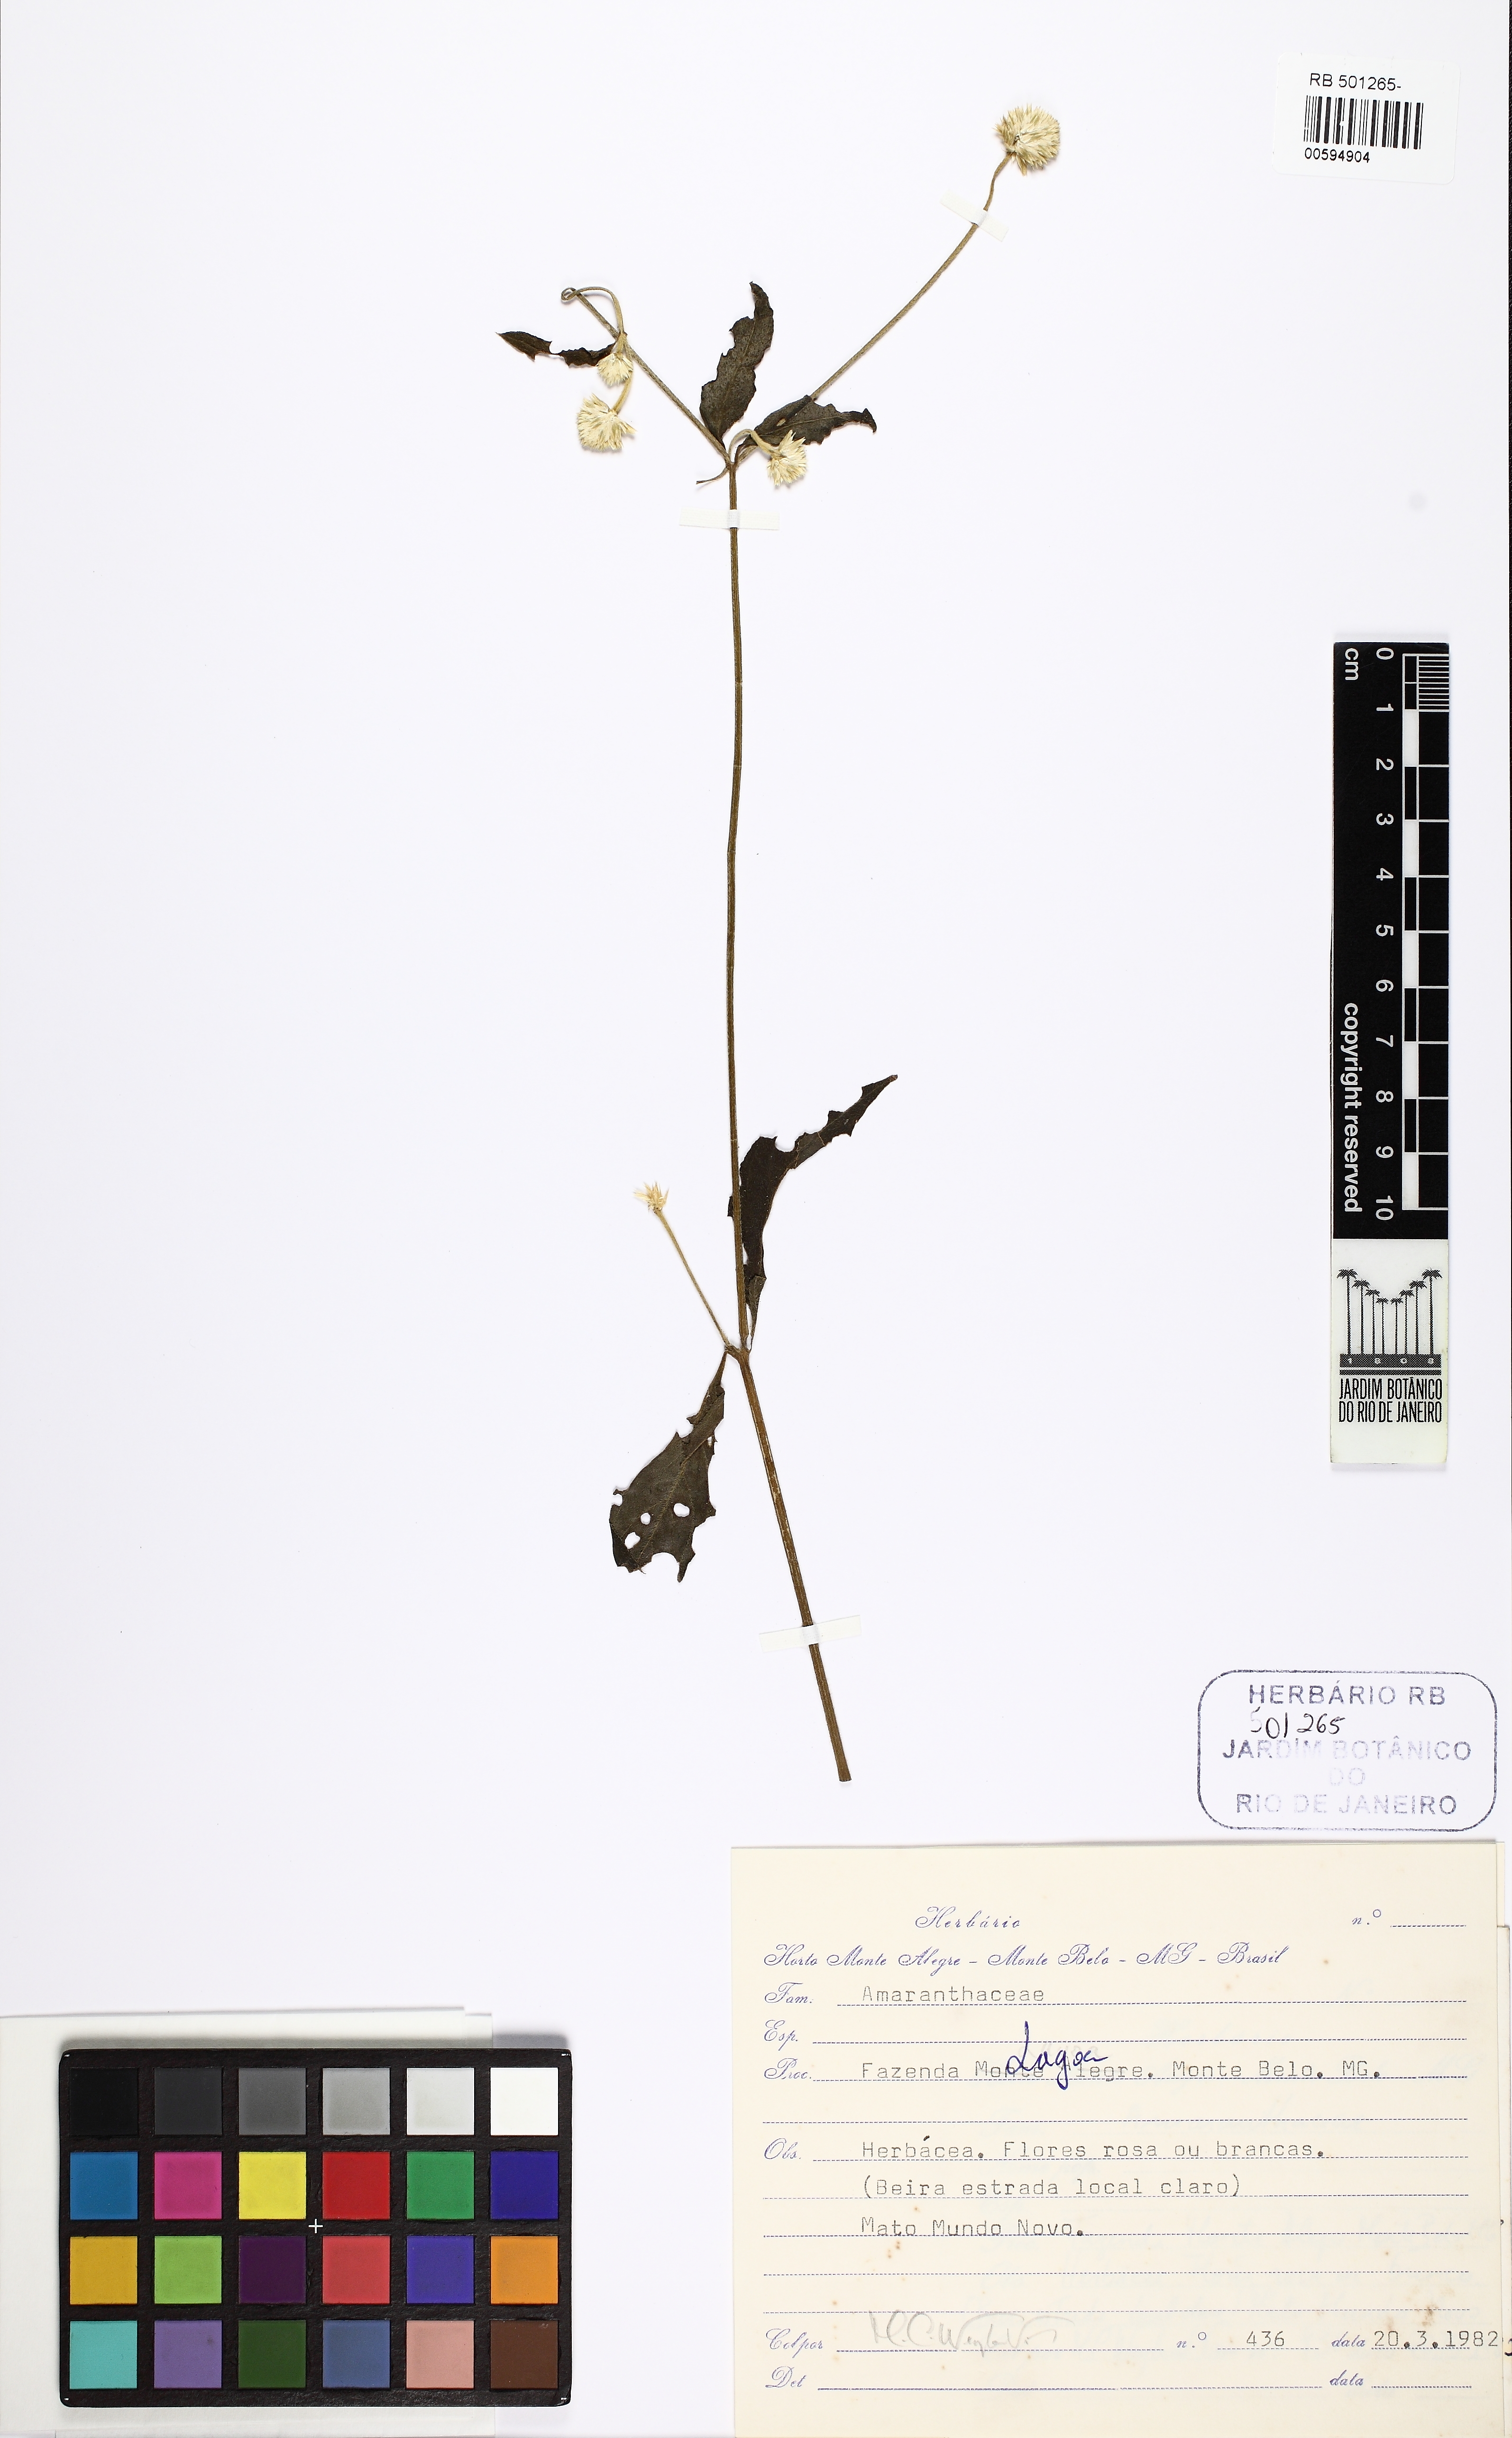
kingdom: Plantae
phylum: Tracheophyta
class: Magnoliopsida
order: Caryophyllales
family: Amaranthaceae
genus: Alternanthera
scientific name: Alternanthera brasiliana
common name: Brazilian joyweed
